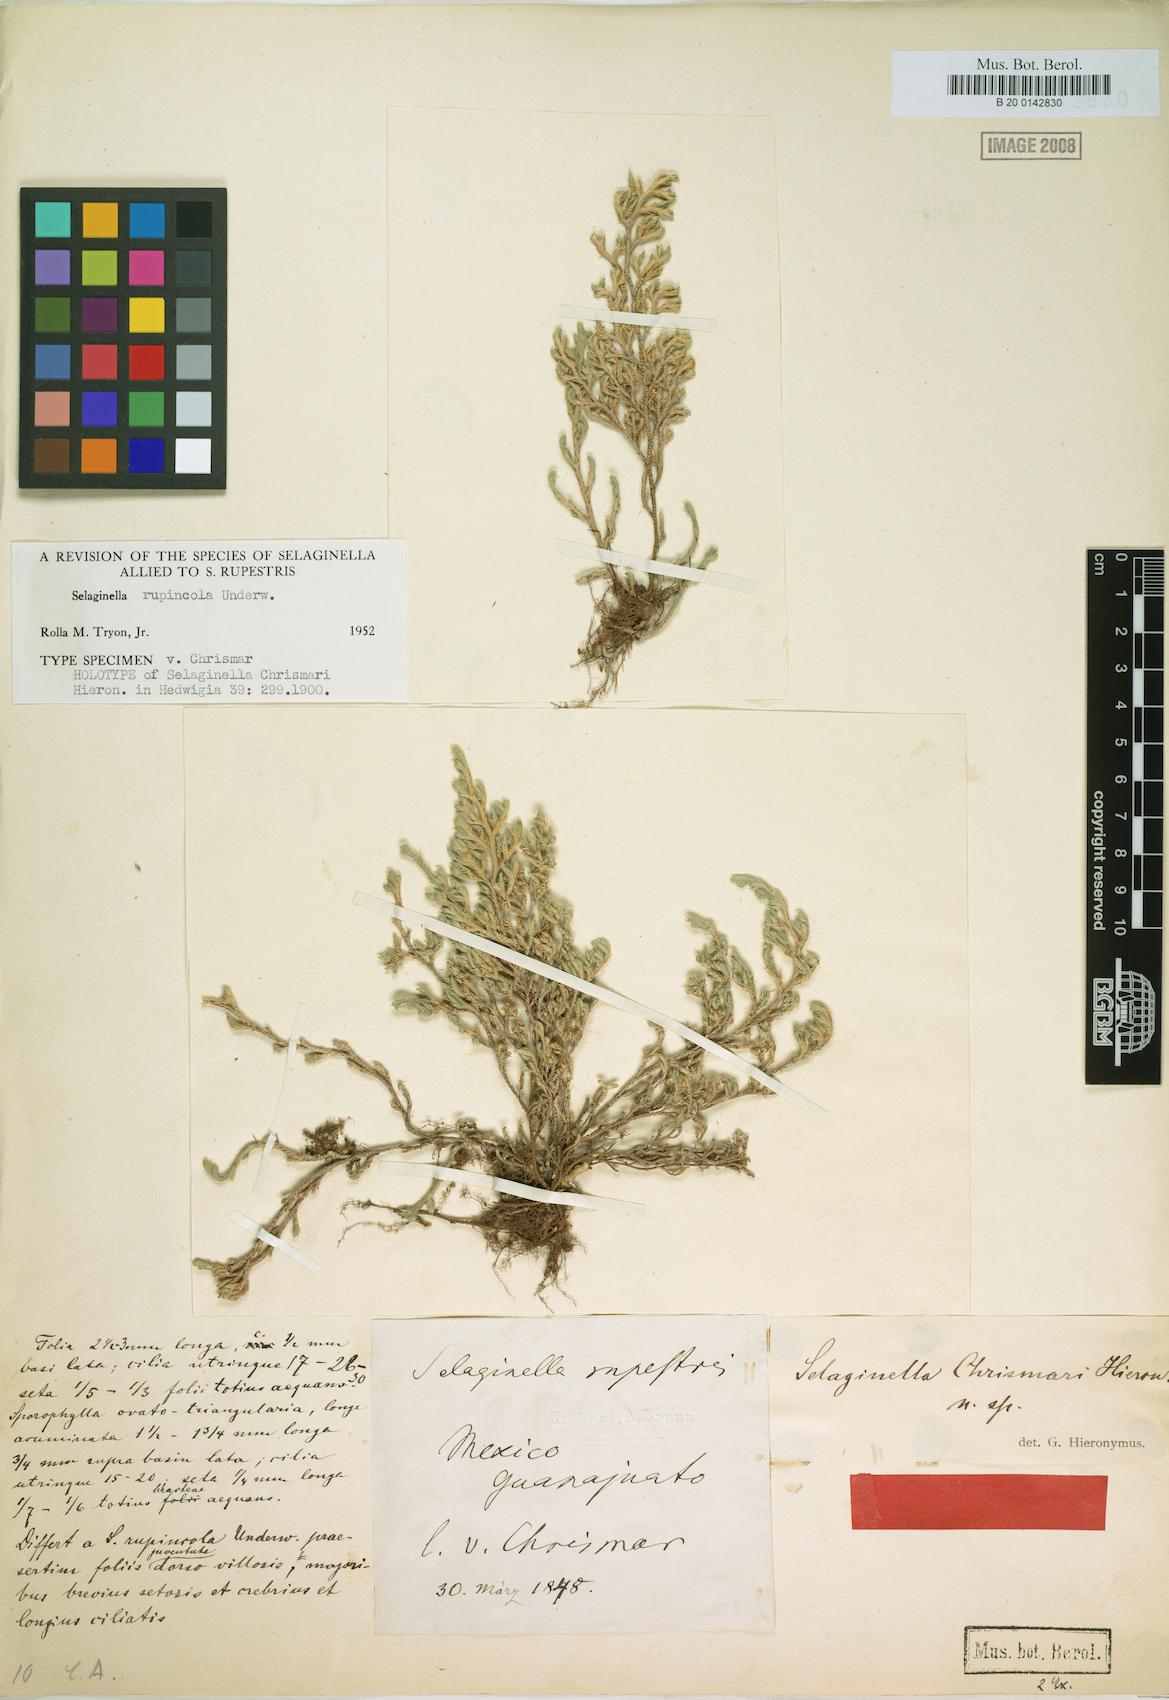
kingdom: Plantae
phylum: Tracheophyta
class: Lycopodiopsida
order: Selaginellales
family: Selaginellaceae
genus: Selaginella
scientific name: Selaginella rupincola
